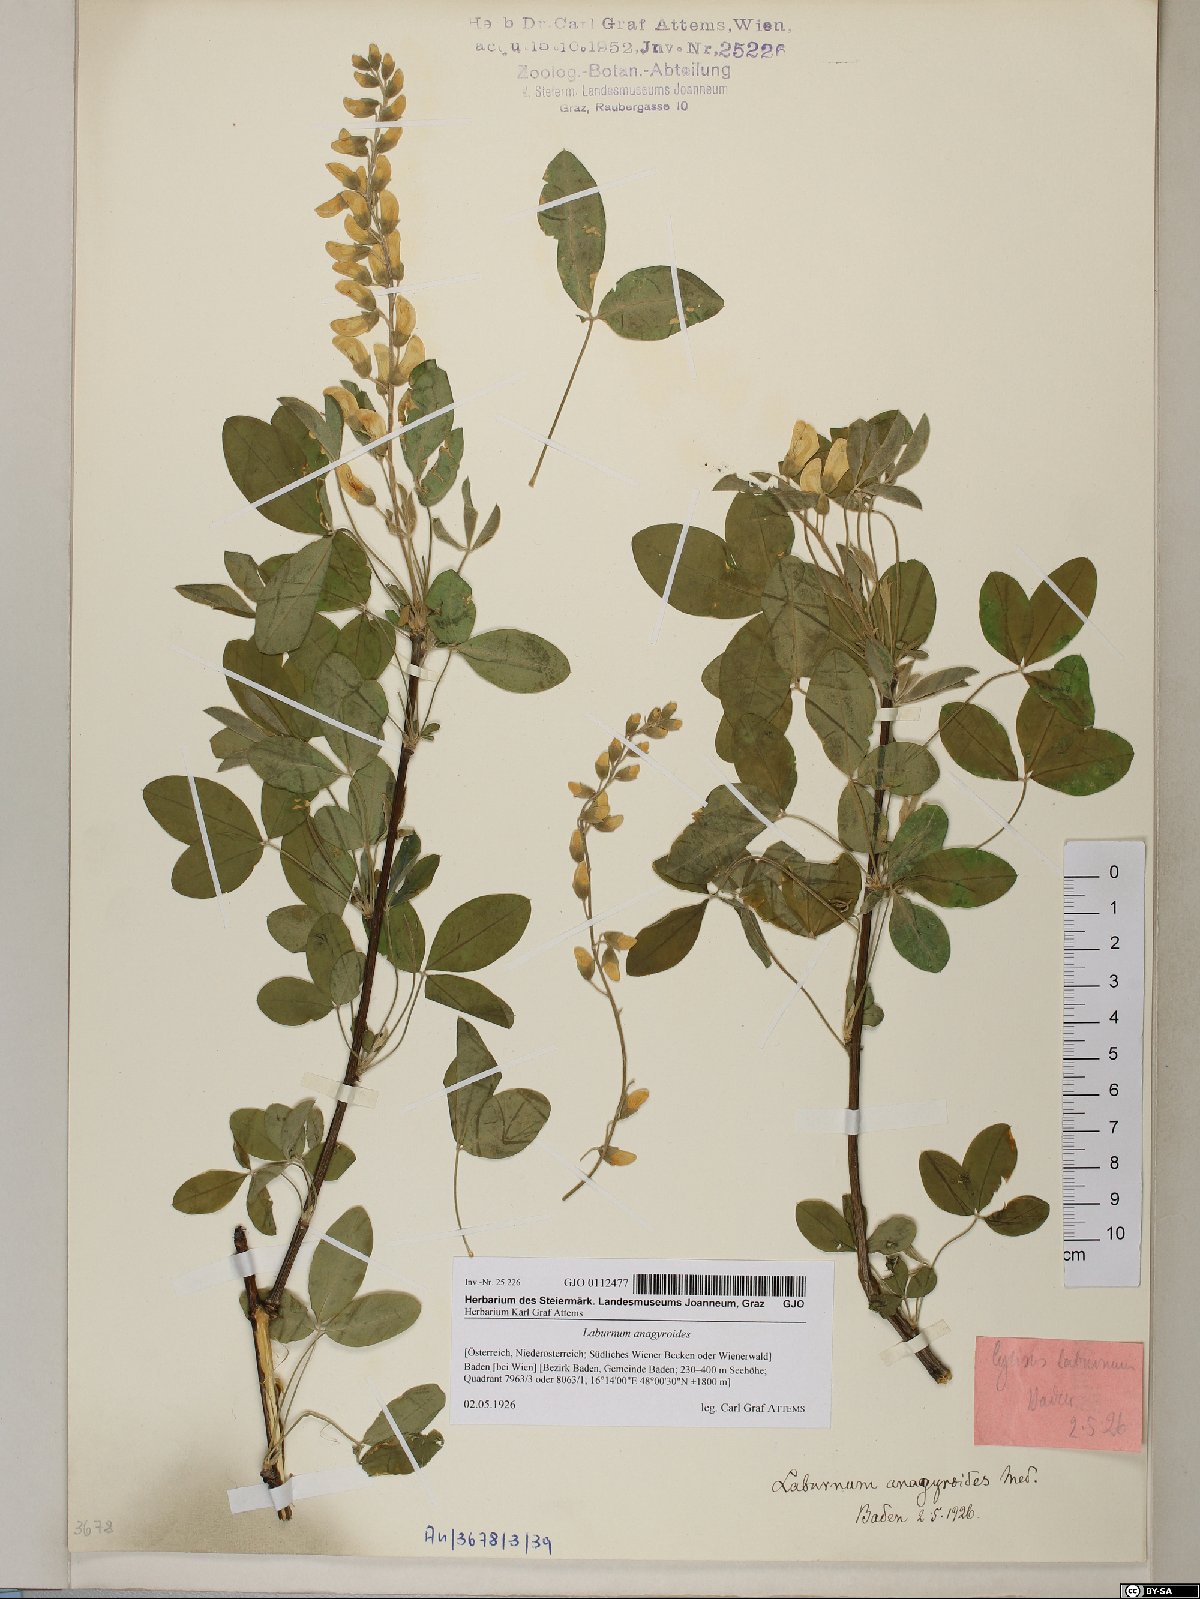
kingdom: Plantae
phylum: Tracheophyta
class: Magnoliopsida
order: Fabales
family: Fabaceae
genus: Laburnum
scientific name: Laburnum anagyroides
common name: Laburnum
